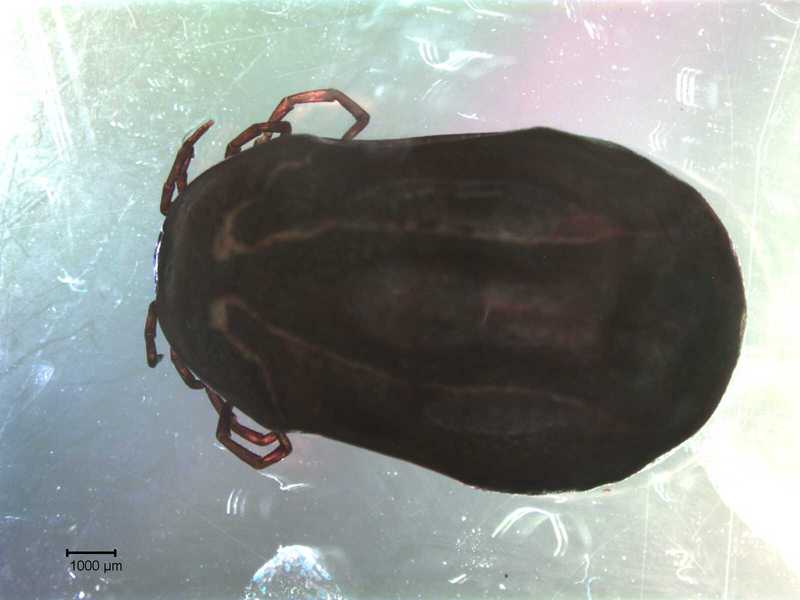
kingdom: Animalia
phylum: Arthropoda
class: Arachnida
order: Ixodida
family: Ixodidae
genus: Ixodes
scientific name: Ixodes
